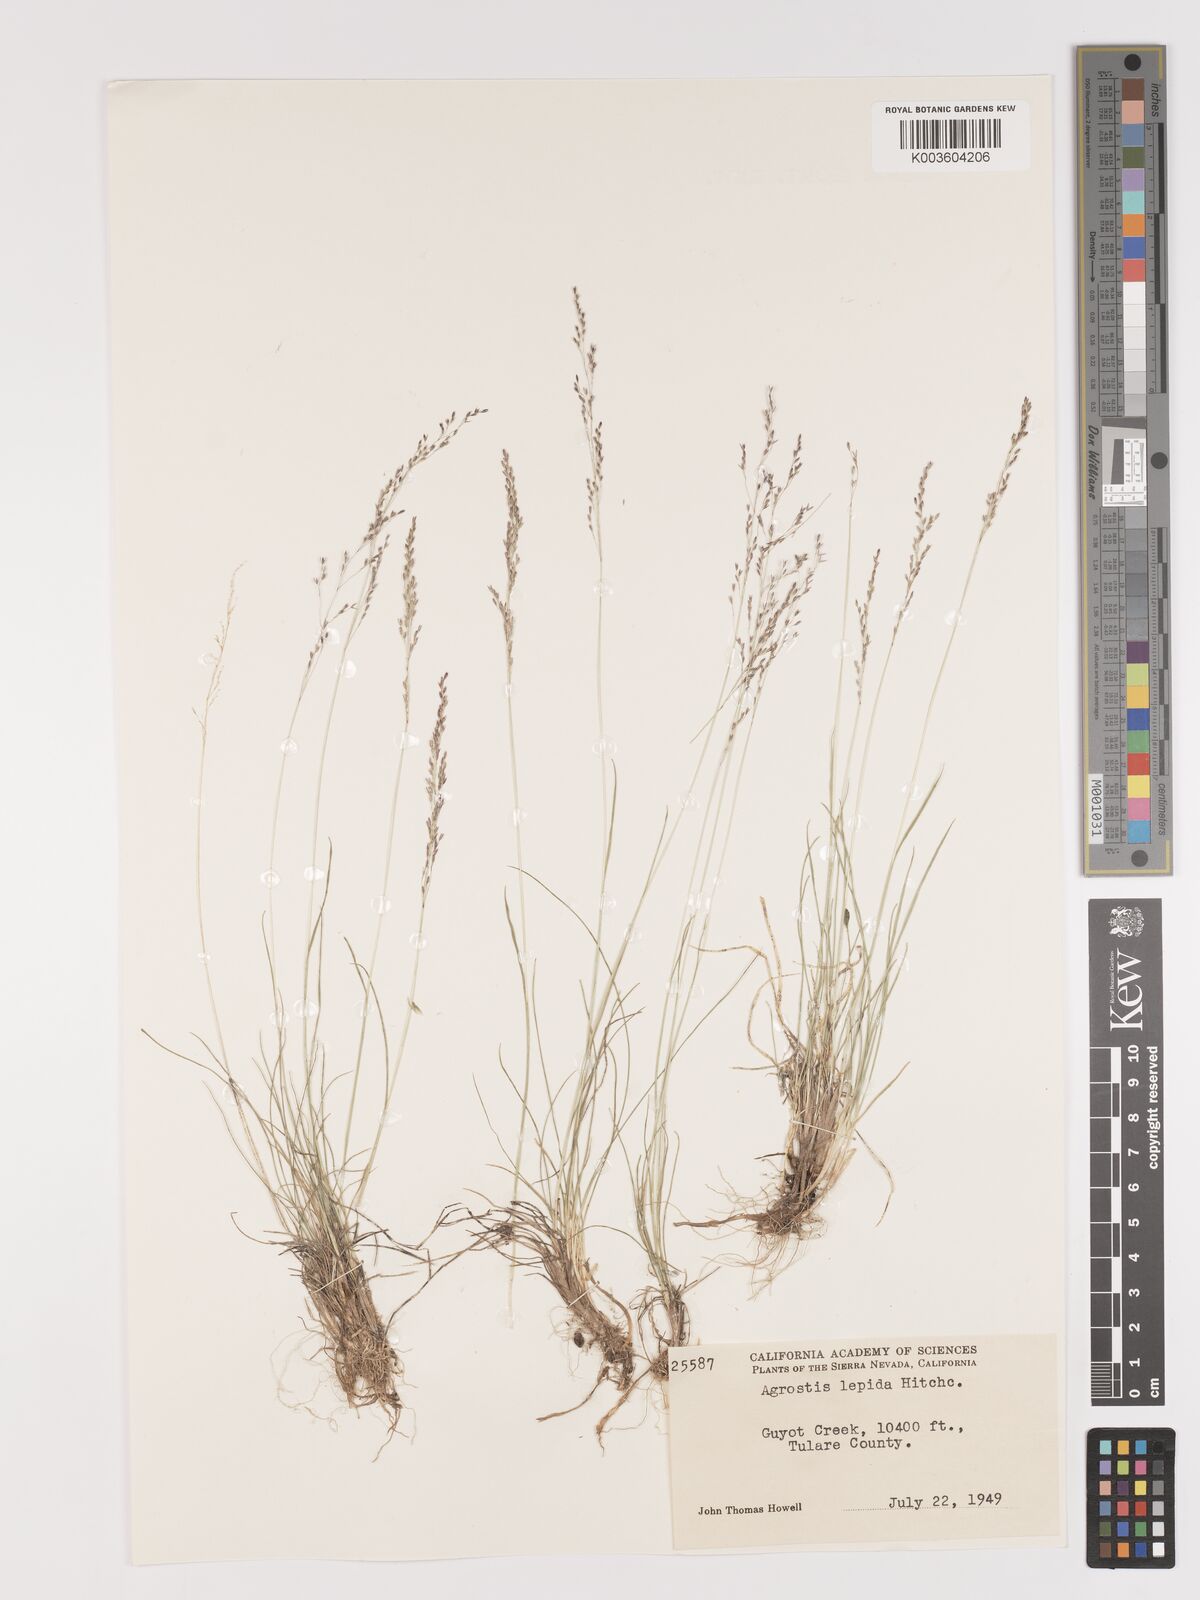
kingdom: Plantae
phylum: Tracheophyta
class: Liliopsida
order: Poales
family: Poaceae
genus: Agrostis
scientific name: Agrostis pallens
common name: Dune bent
